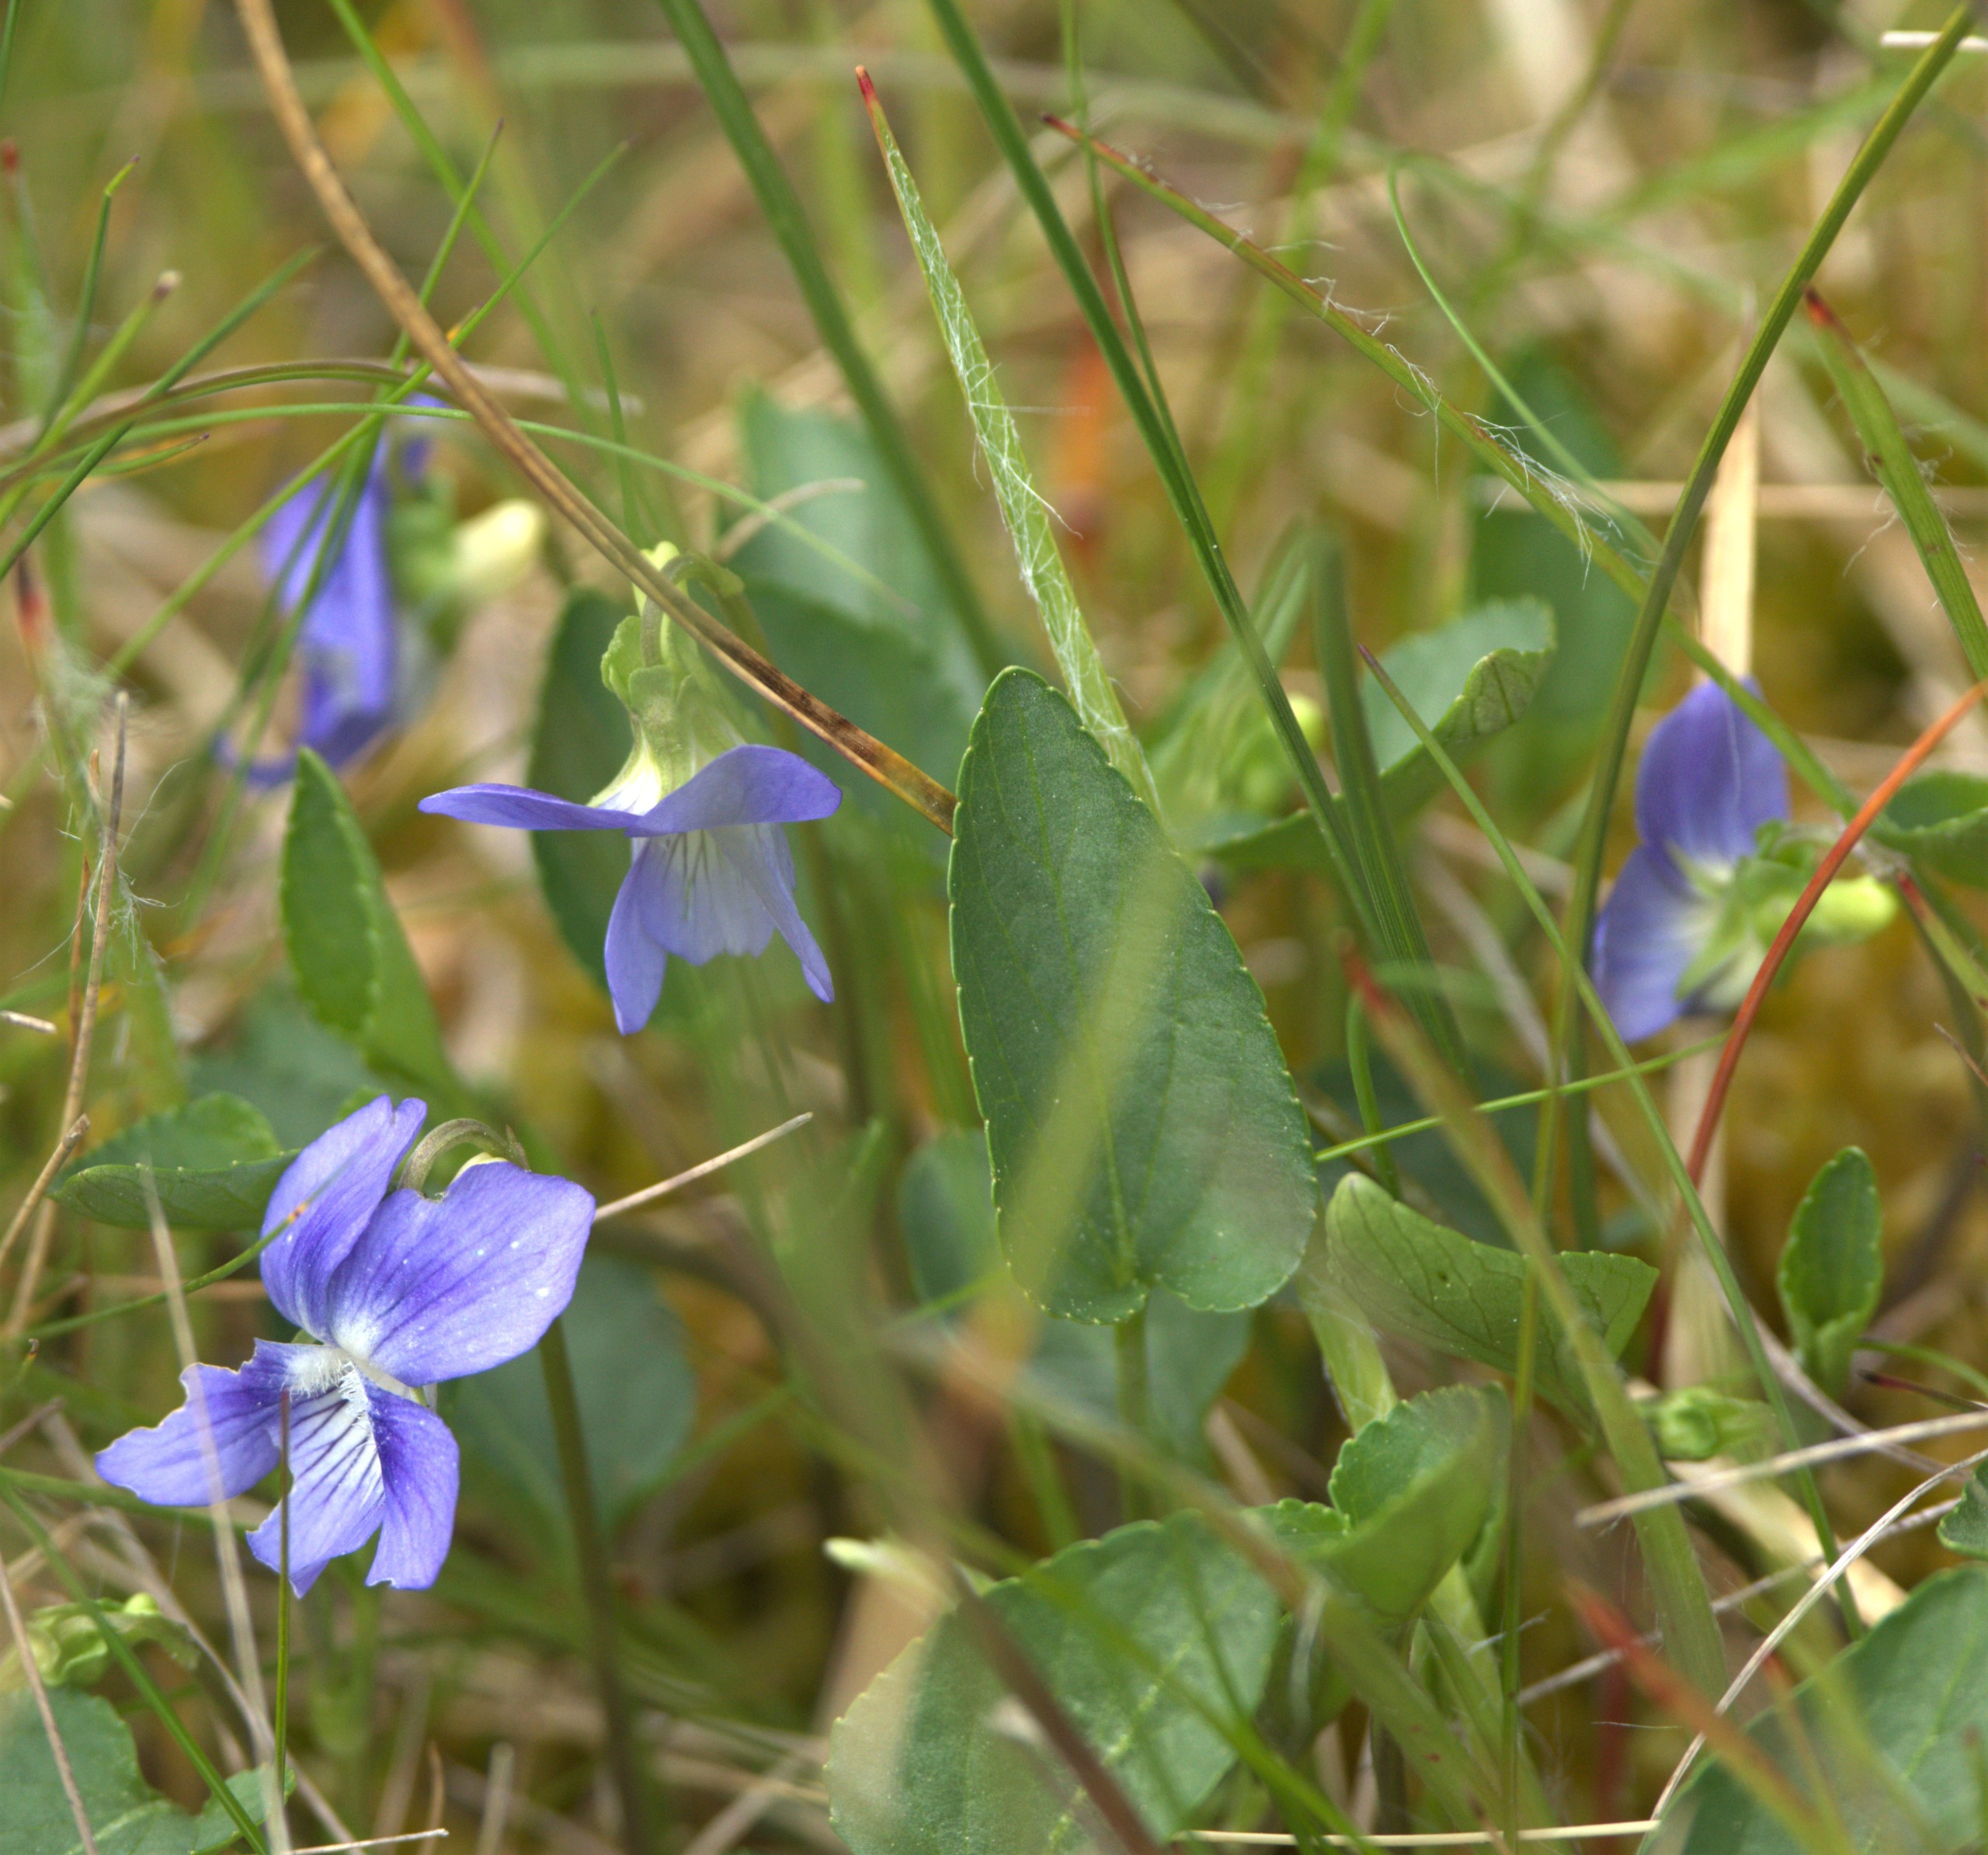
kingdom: Plantae
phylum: Tracheophyta
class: Magnoliopsida
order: Malpighiales
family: Violaceae
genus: Viola
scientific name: Viola canina
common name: Hunde-viol
